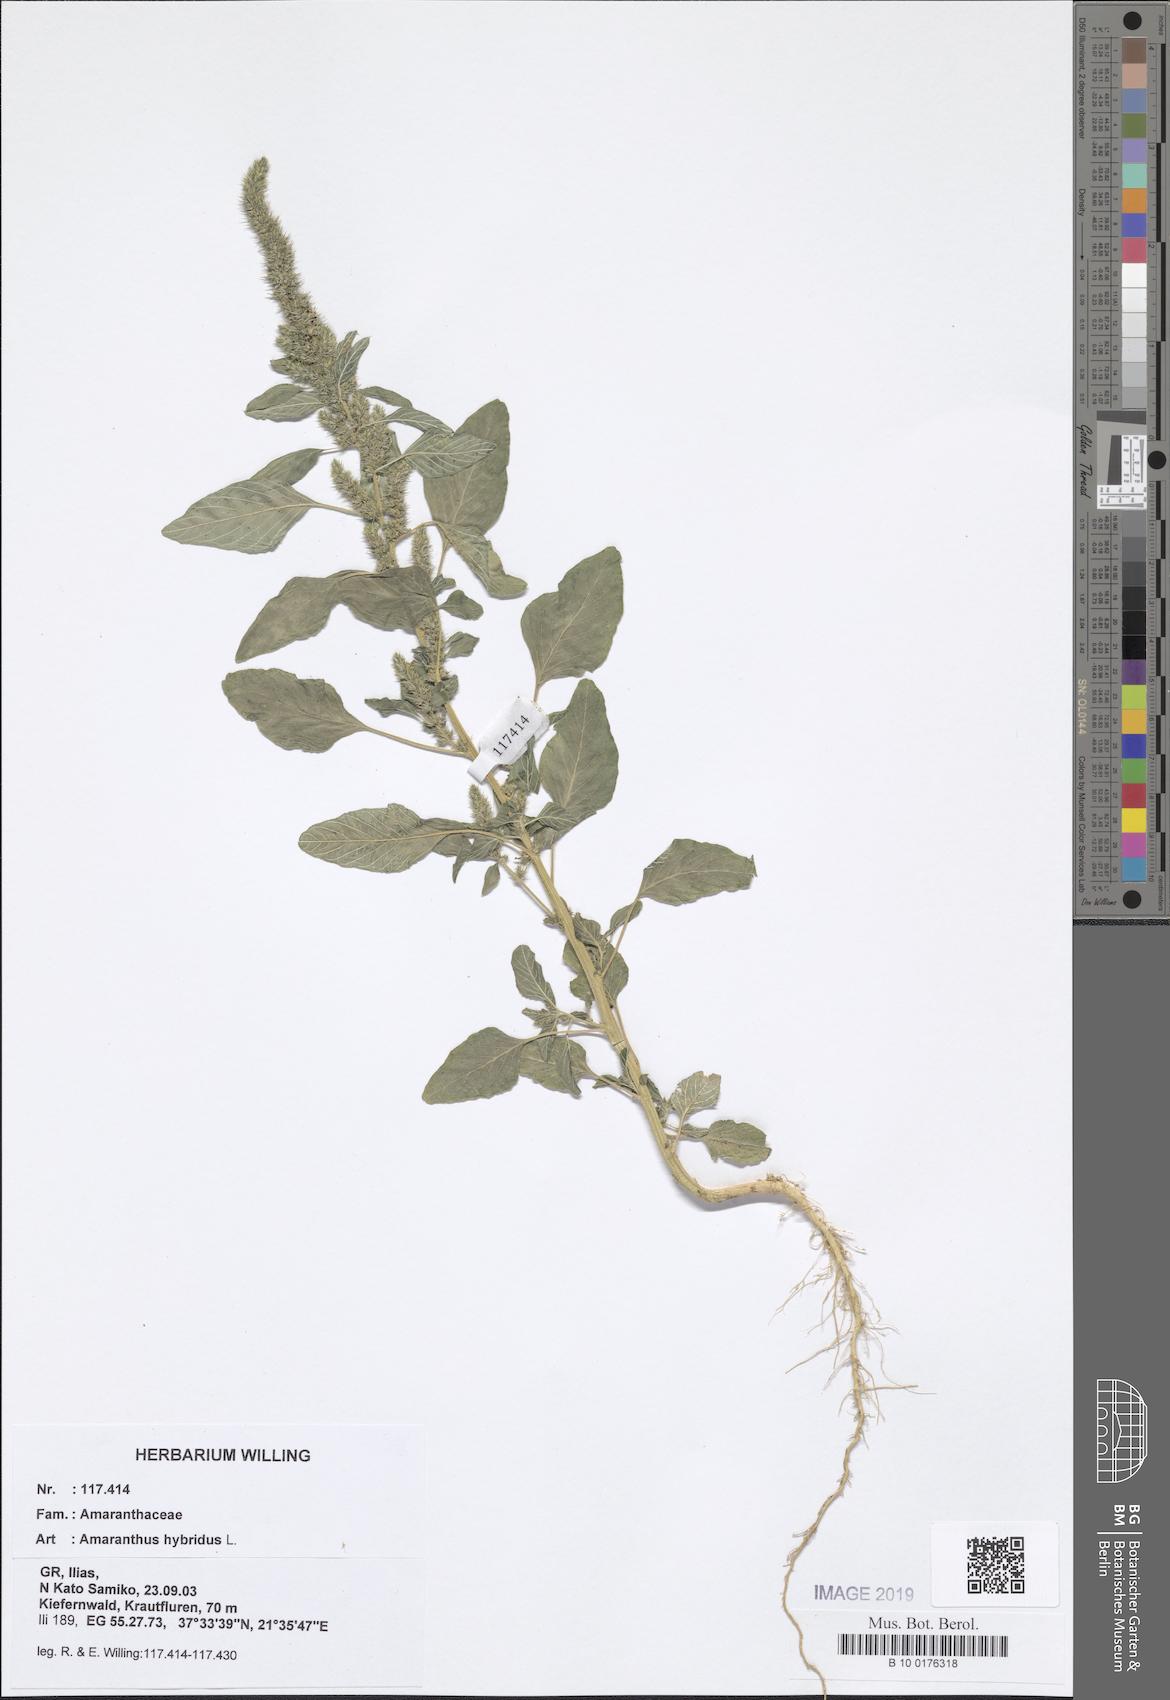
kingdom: Plantae
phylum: Tracheophyta
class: Magnoliopsida
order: Caryophyllales
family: Amaranthaceae
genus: Amaranthus
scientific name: Amaranthus hybridus
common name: Green amaranth
